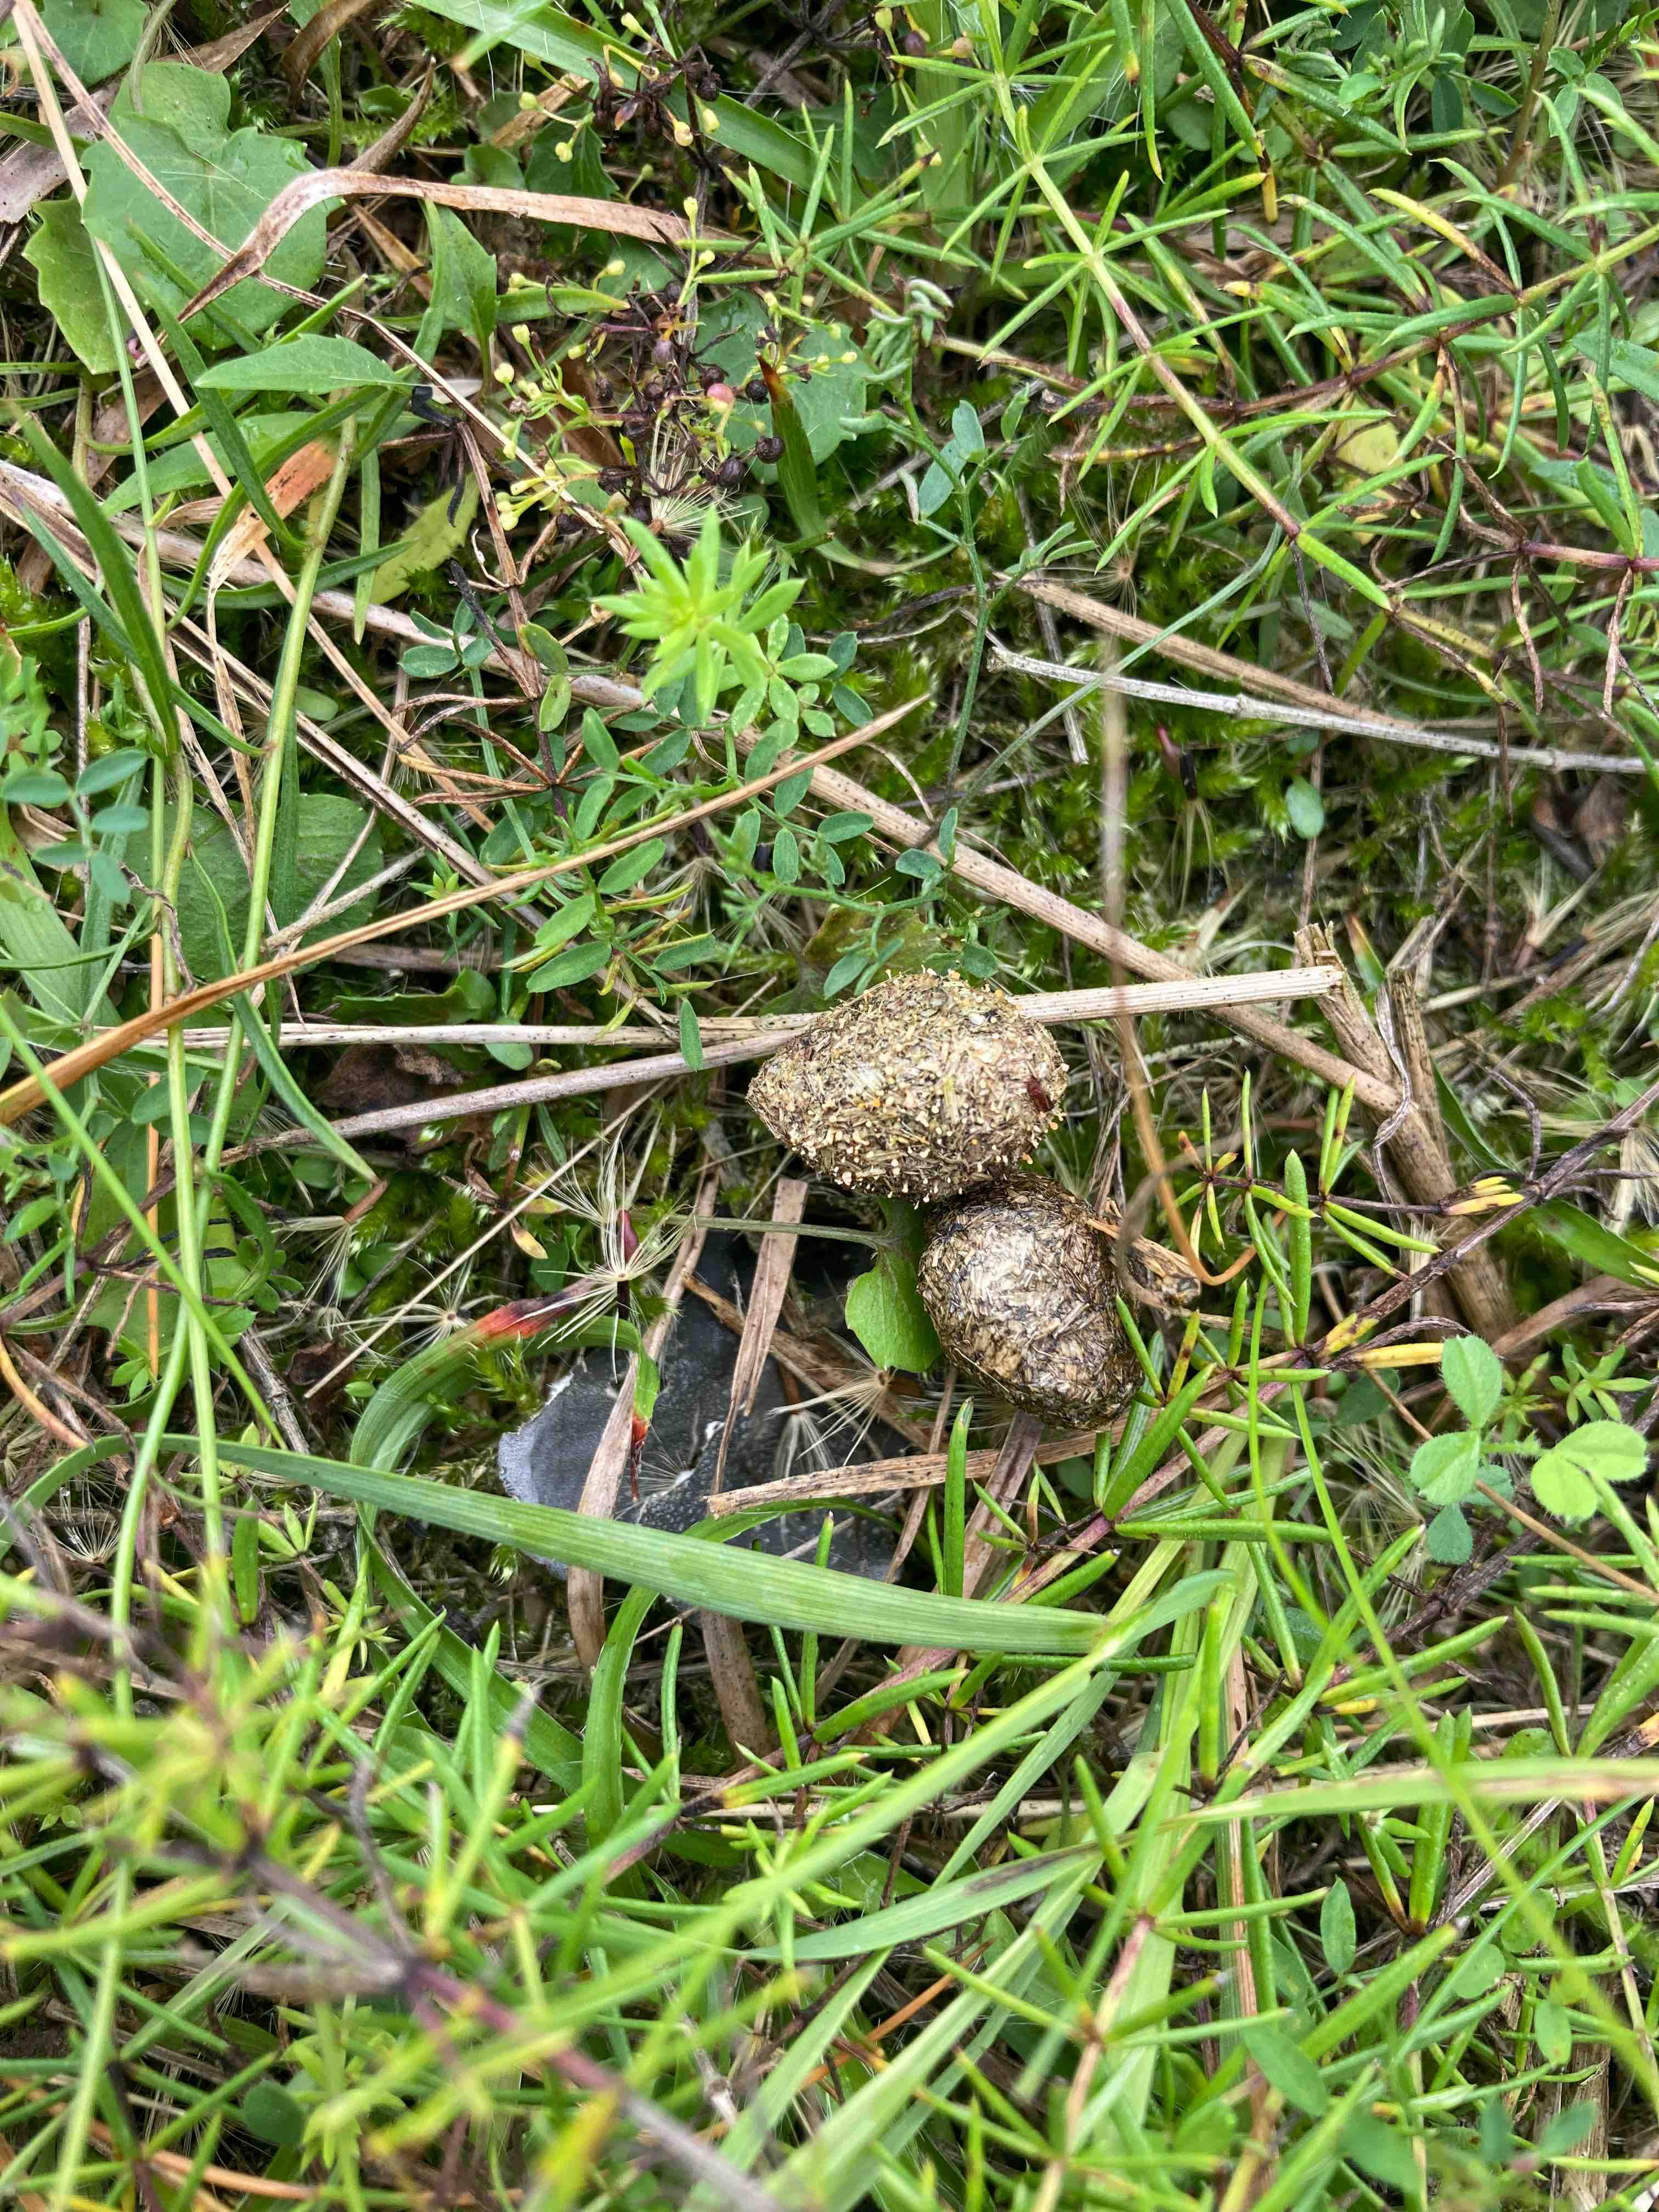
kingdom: Fungi
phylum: Ascomycota
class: Sordariomycetes
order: Hypocreales
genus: Stilbella
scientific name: Stilbella fimetaria
